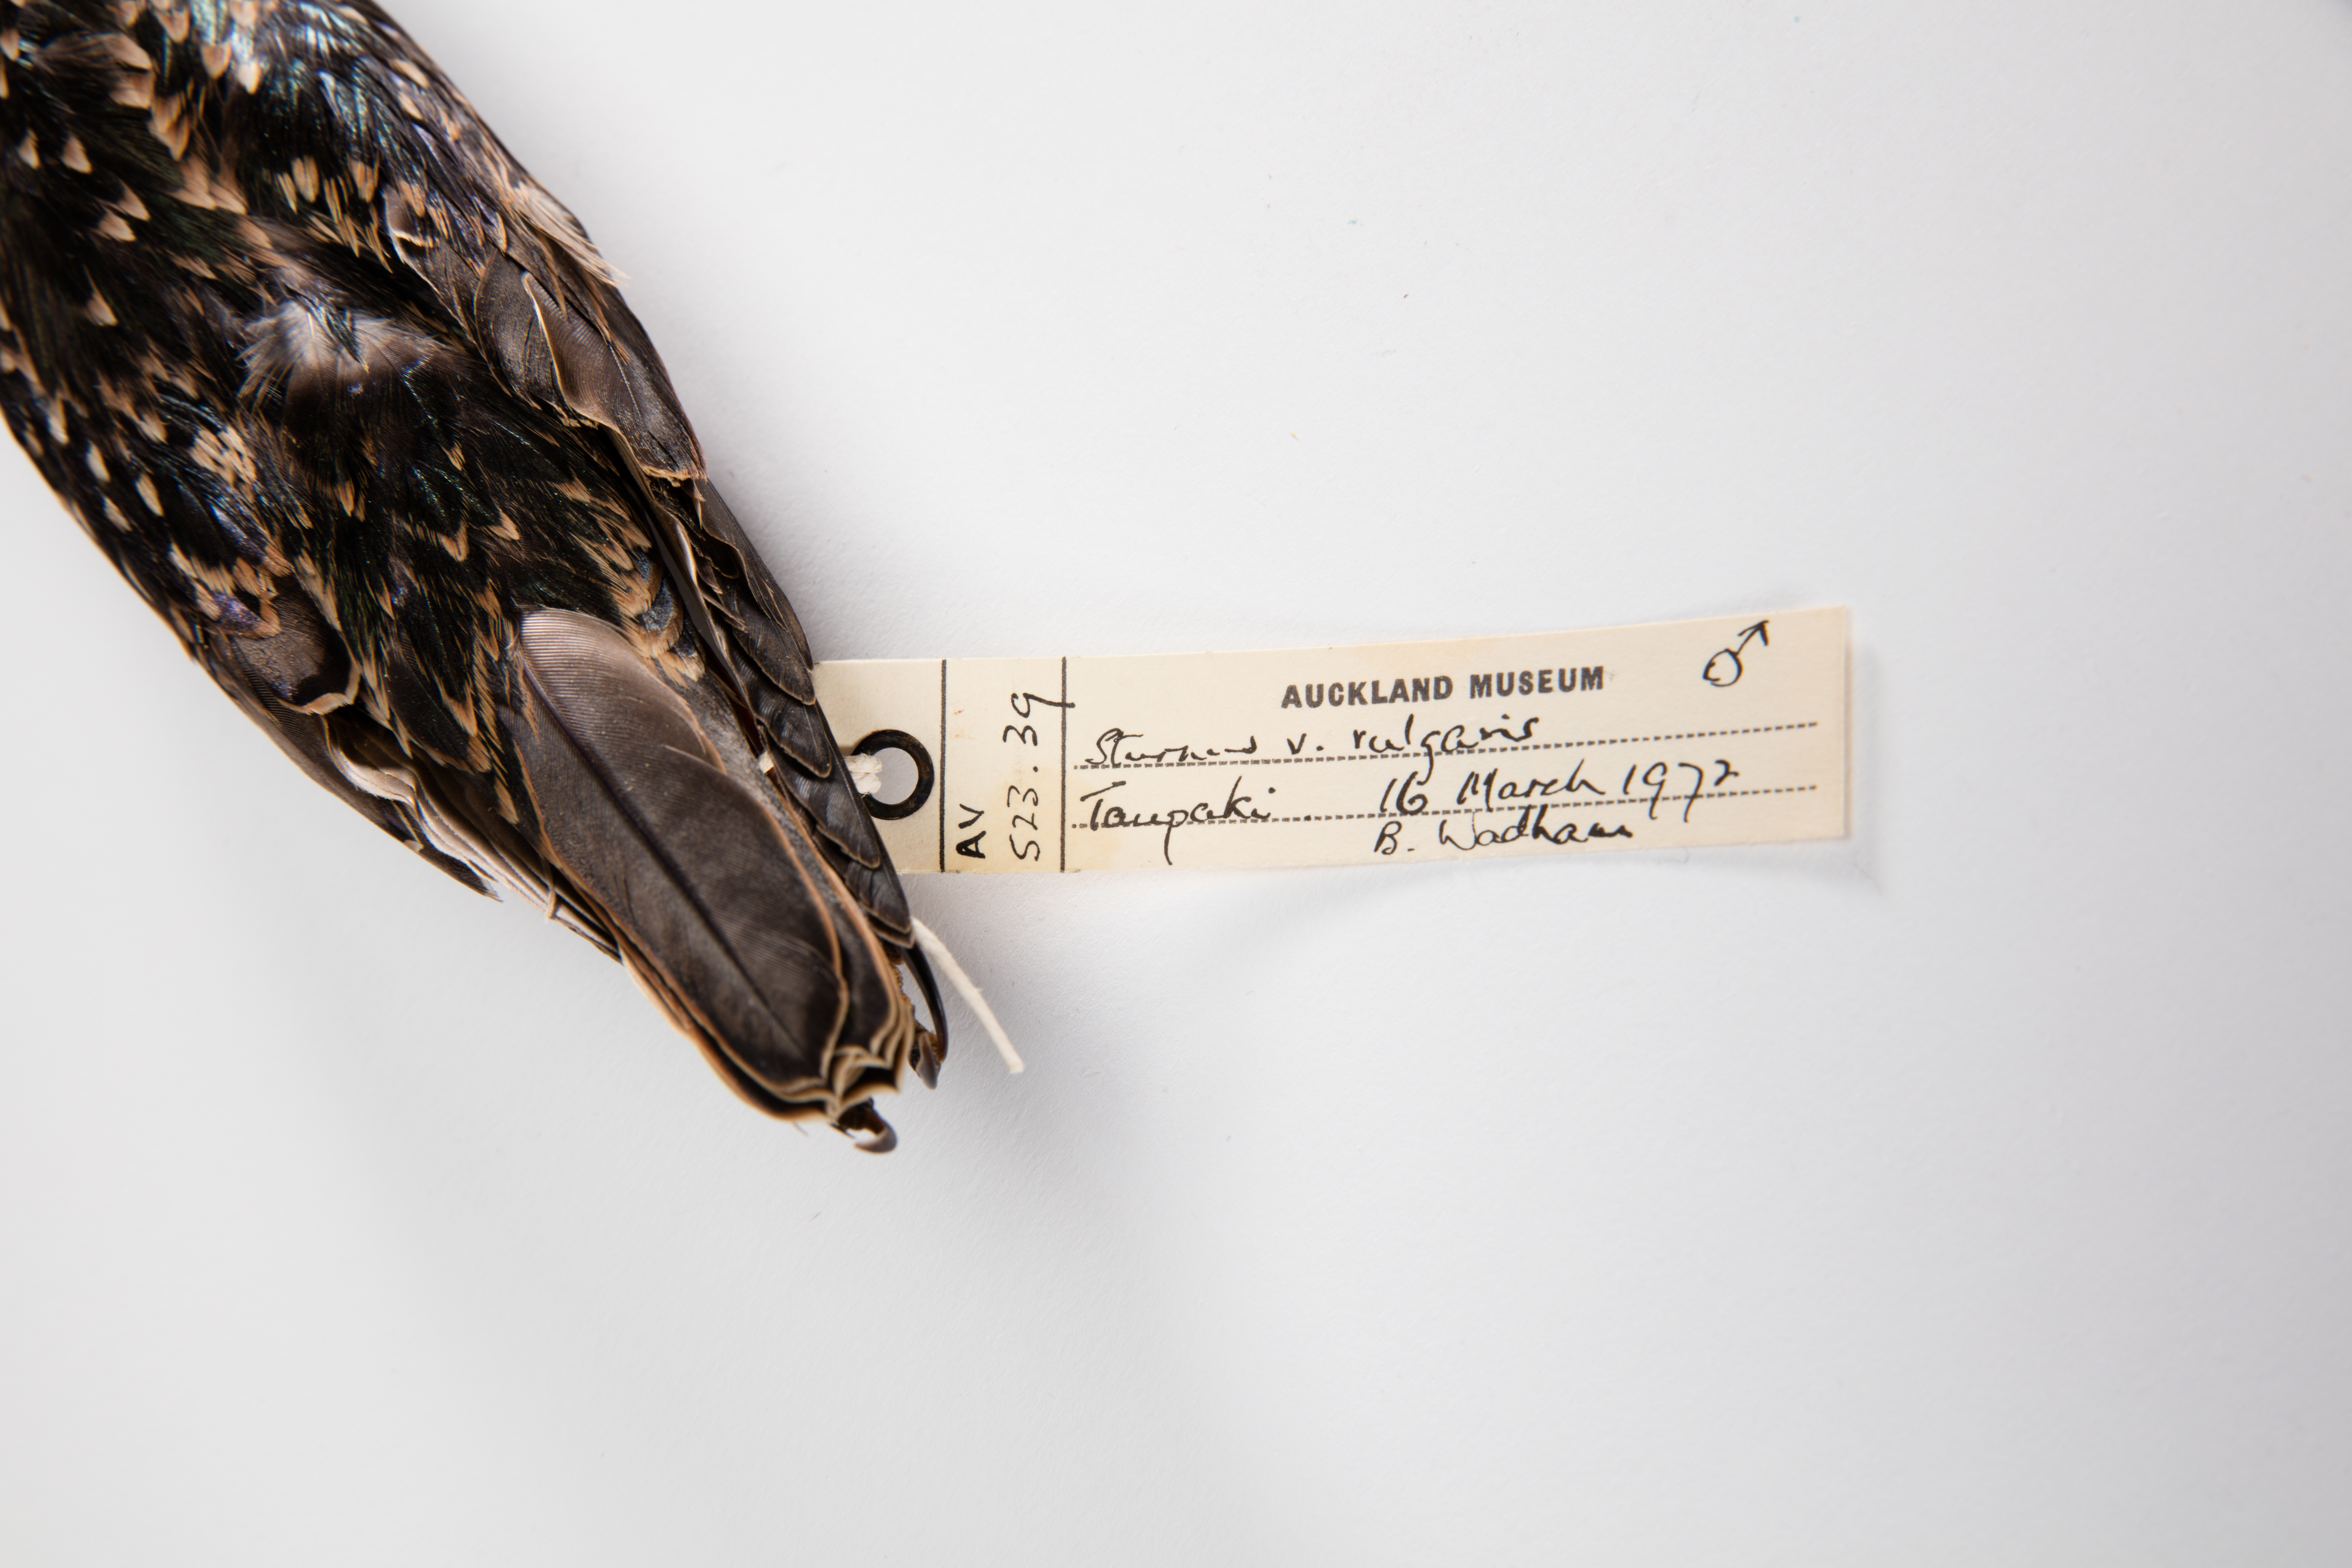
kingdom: Animalia
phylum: Chordata
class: Aves
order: Passeriformes
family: Sturnidae
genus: Sturnus
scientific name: Sturnus vulgaris
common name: Common starling
